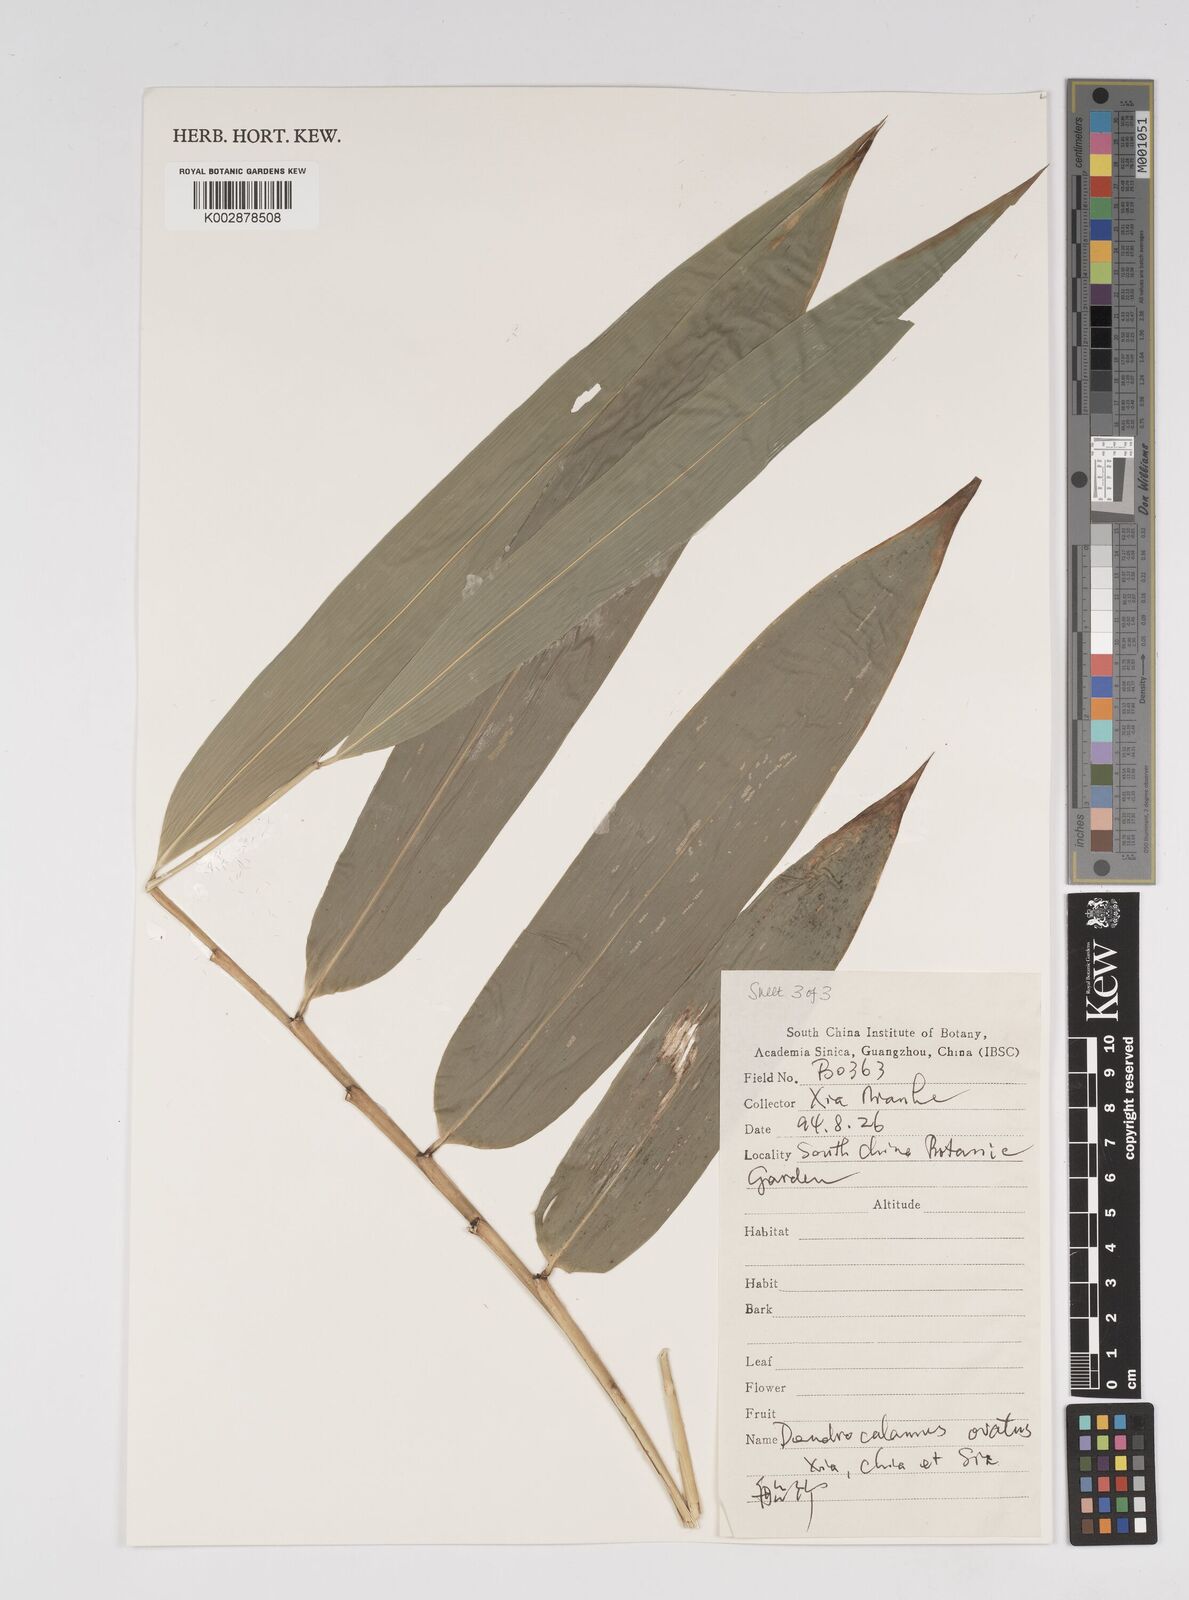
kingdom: Plantae
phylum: Tracheophyta
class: Liliopsida
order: Poales
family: Poaceae
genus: Dendrocalamus
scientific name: Dendrocalamus farinosus
